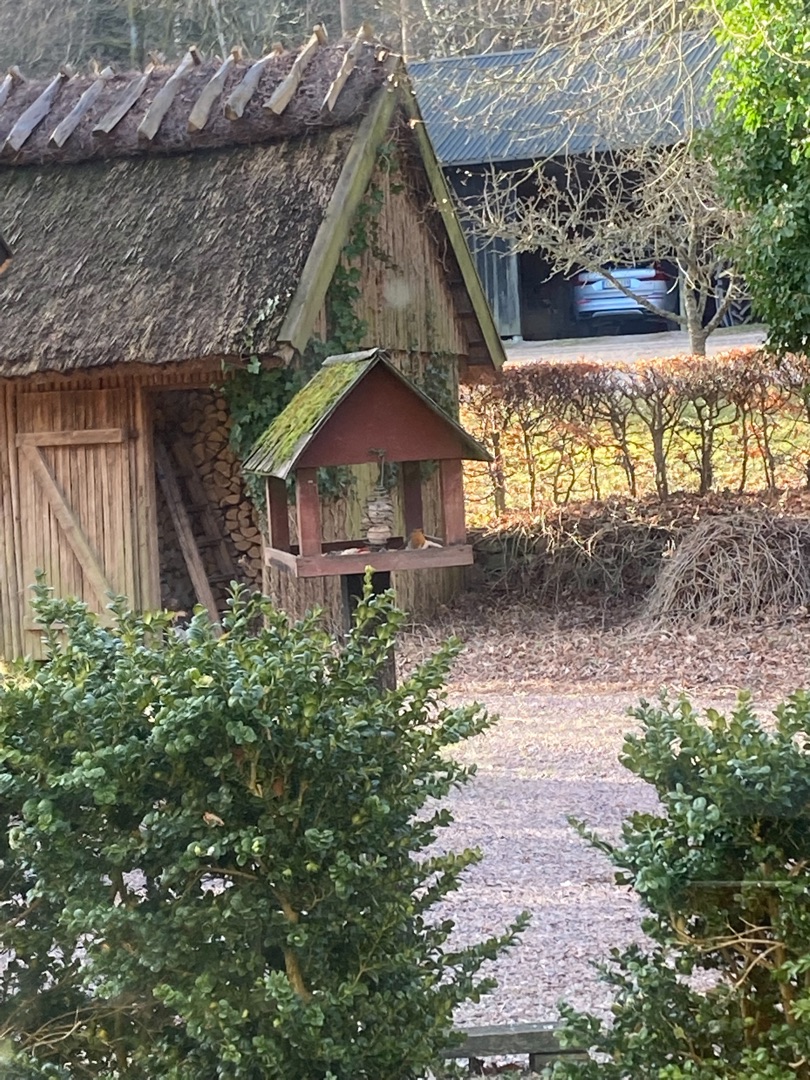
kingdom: Animalia
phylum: Chordata
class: Aves
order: Passeriformes
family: Muscicapidae
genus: Erithacus
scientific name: Erithacus rubecula
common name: Rødhals/rødkælk
